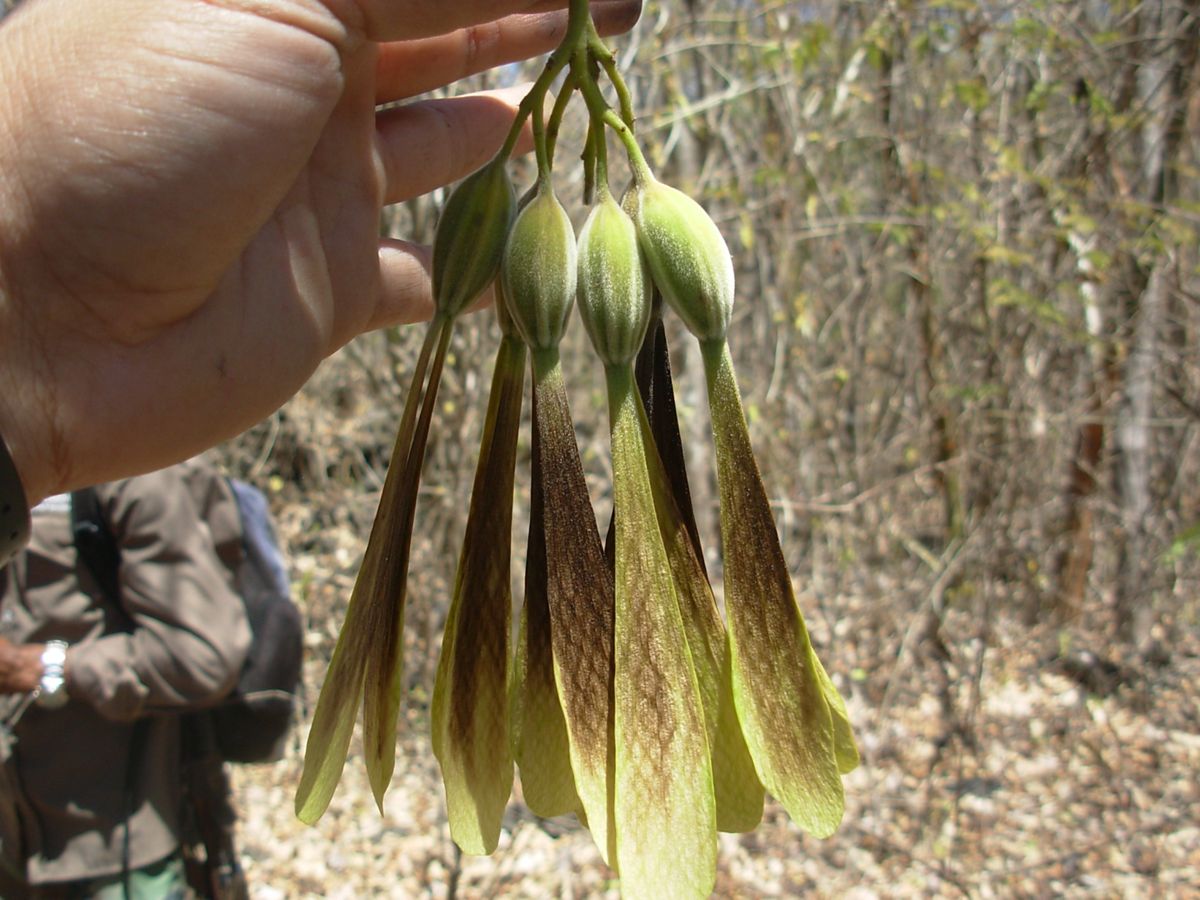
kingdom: Plantae
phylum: Tracheophyta
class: Magnoliopsida
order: Laurales
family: Hernandiaceae
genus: Gyrocarpus
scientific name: Gyrocarpus mocinoi
